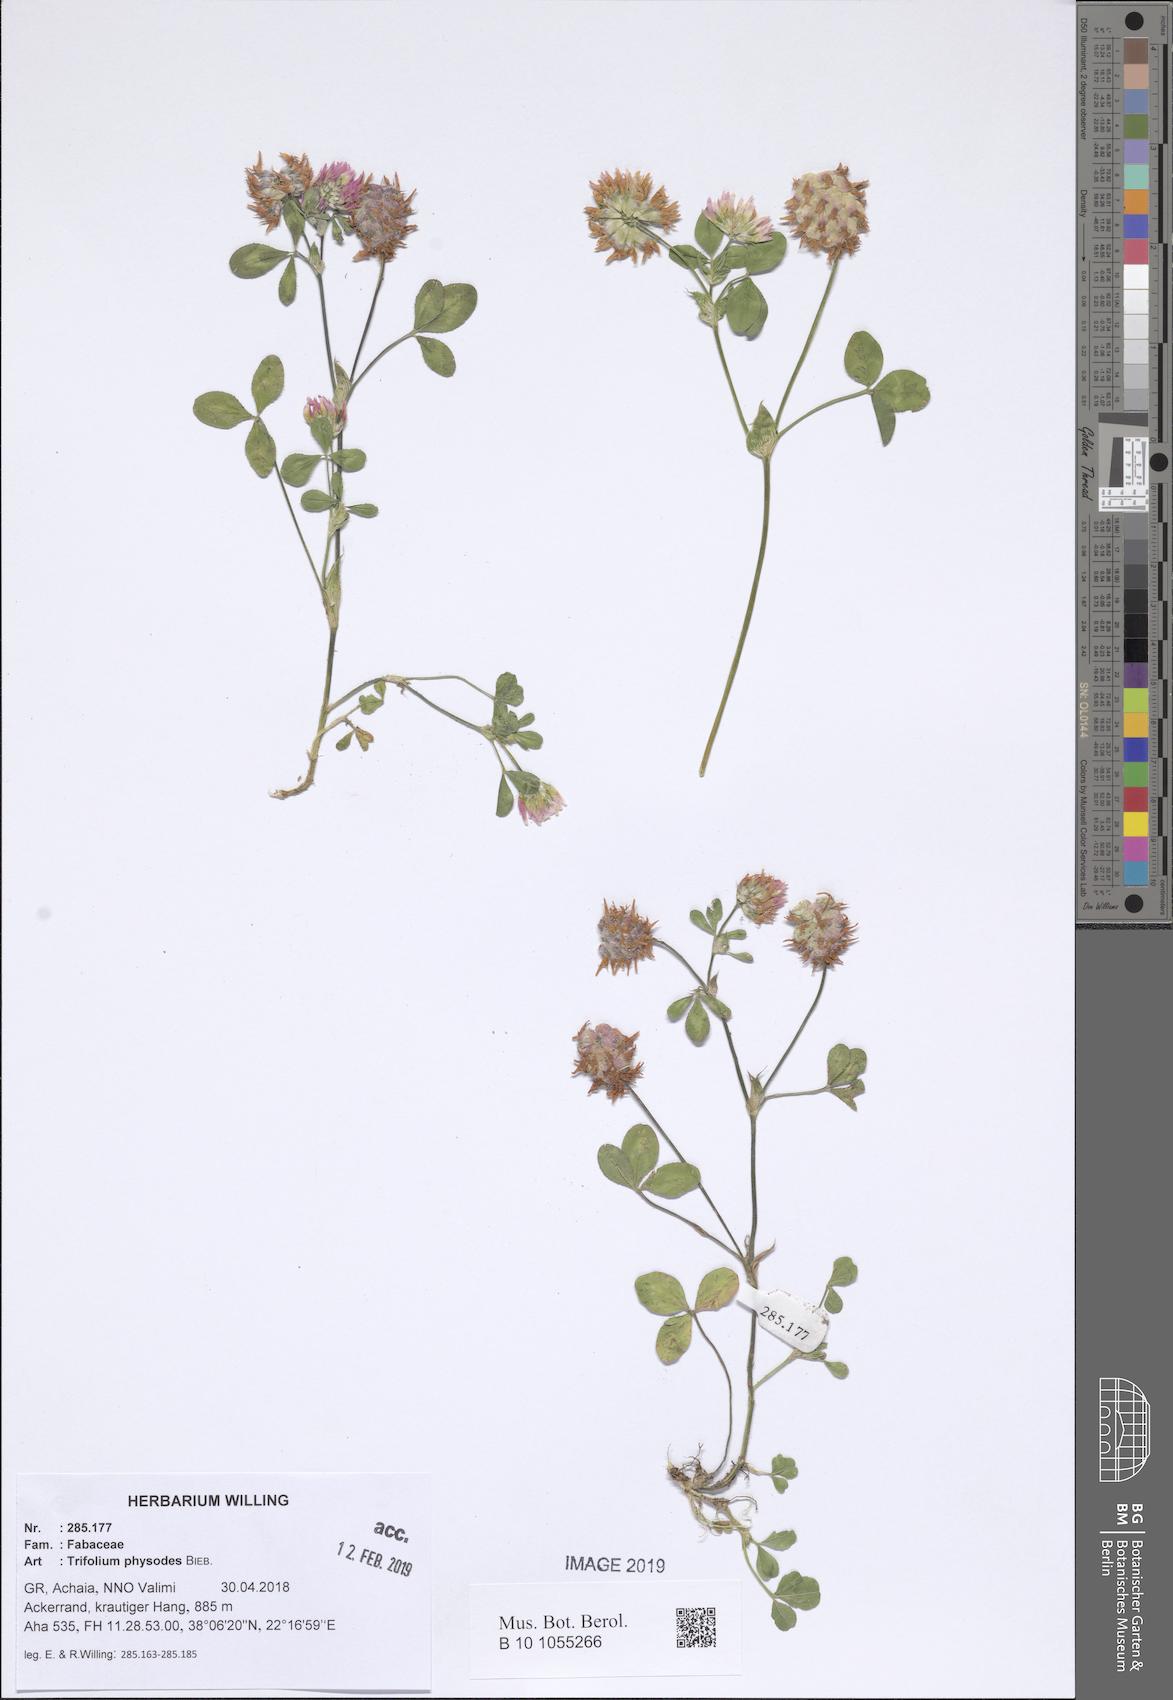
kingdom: Plantae
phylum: Tracheophyta
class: Magnoliopsida
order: Fabales
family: Fabaceae
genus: Trifolium
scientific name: Trifolium physodes
